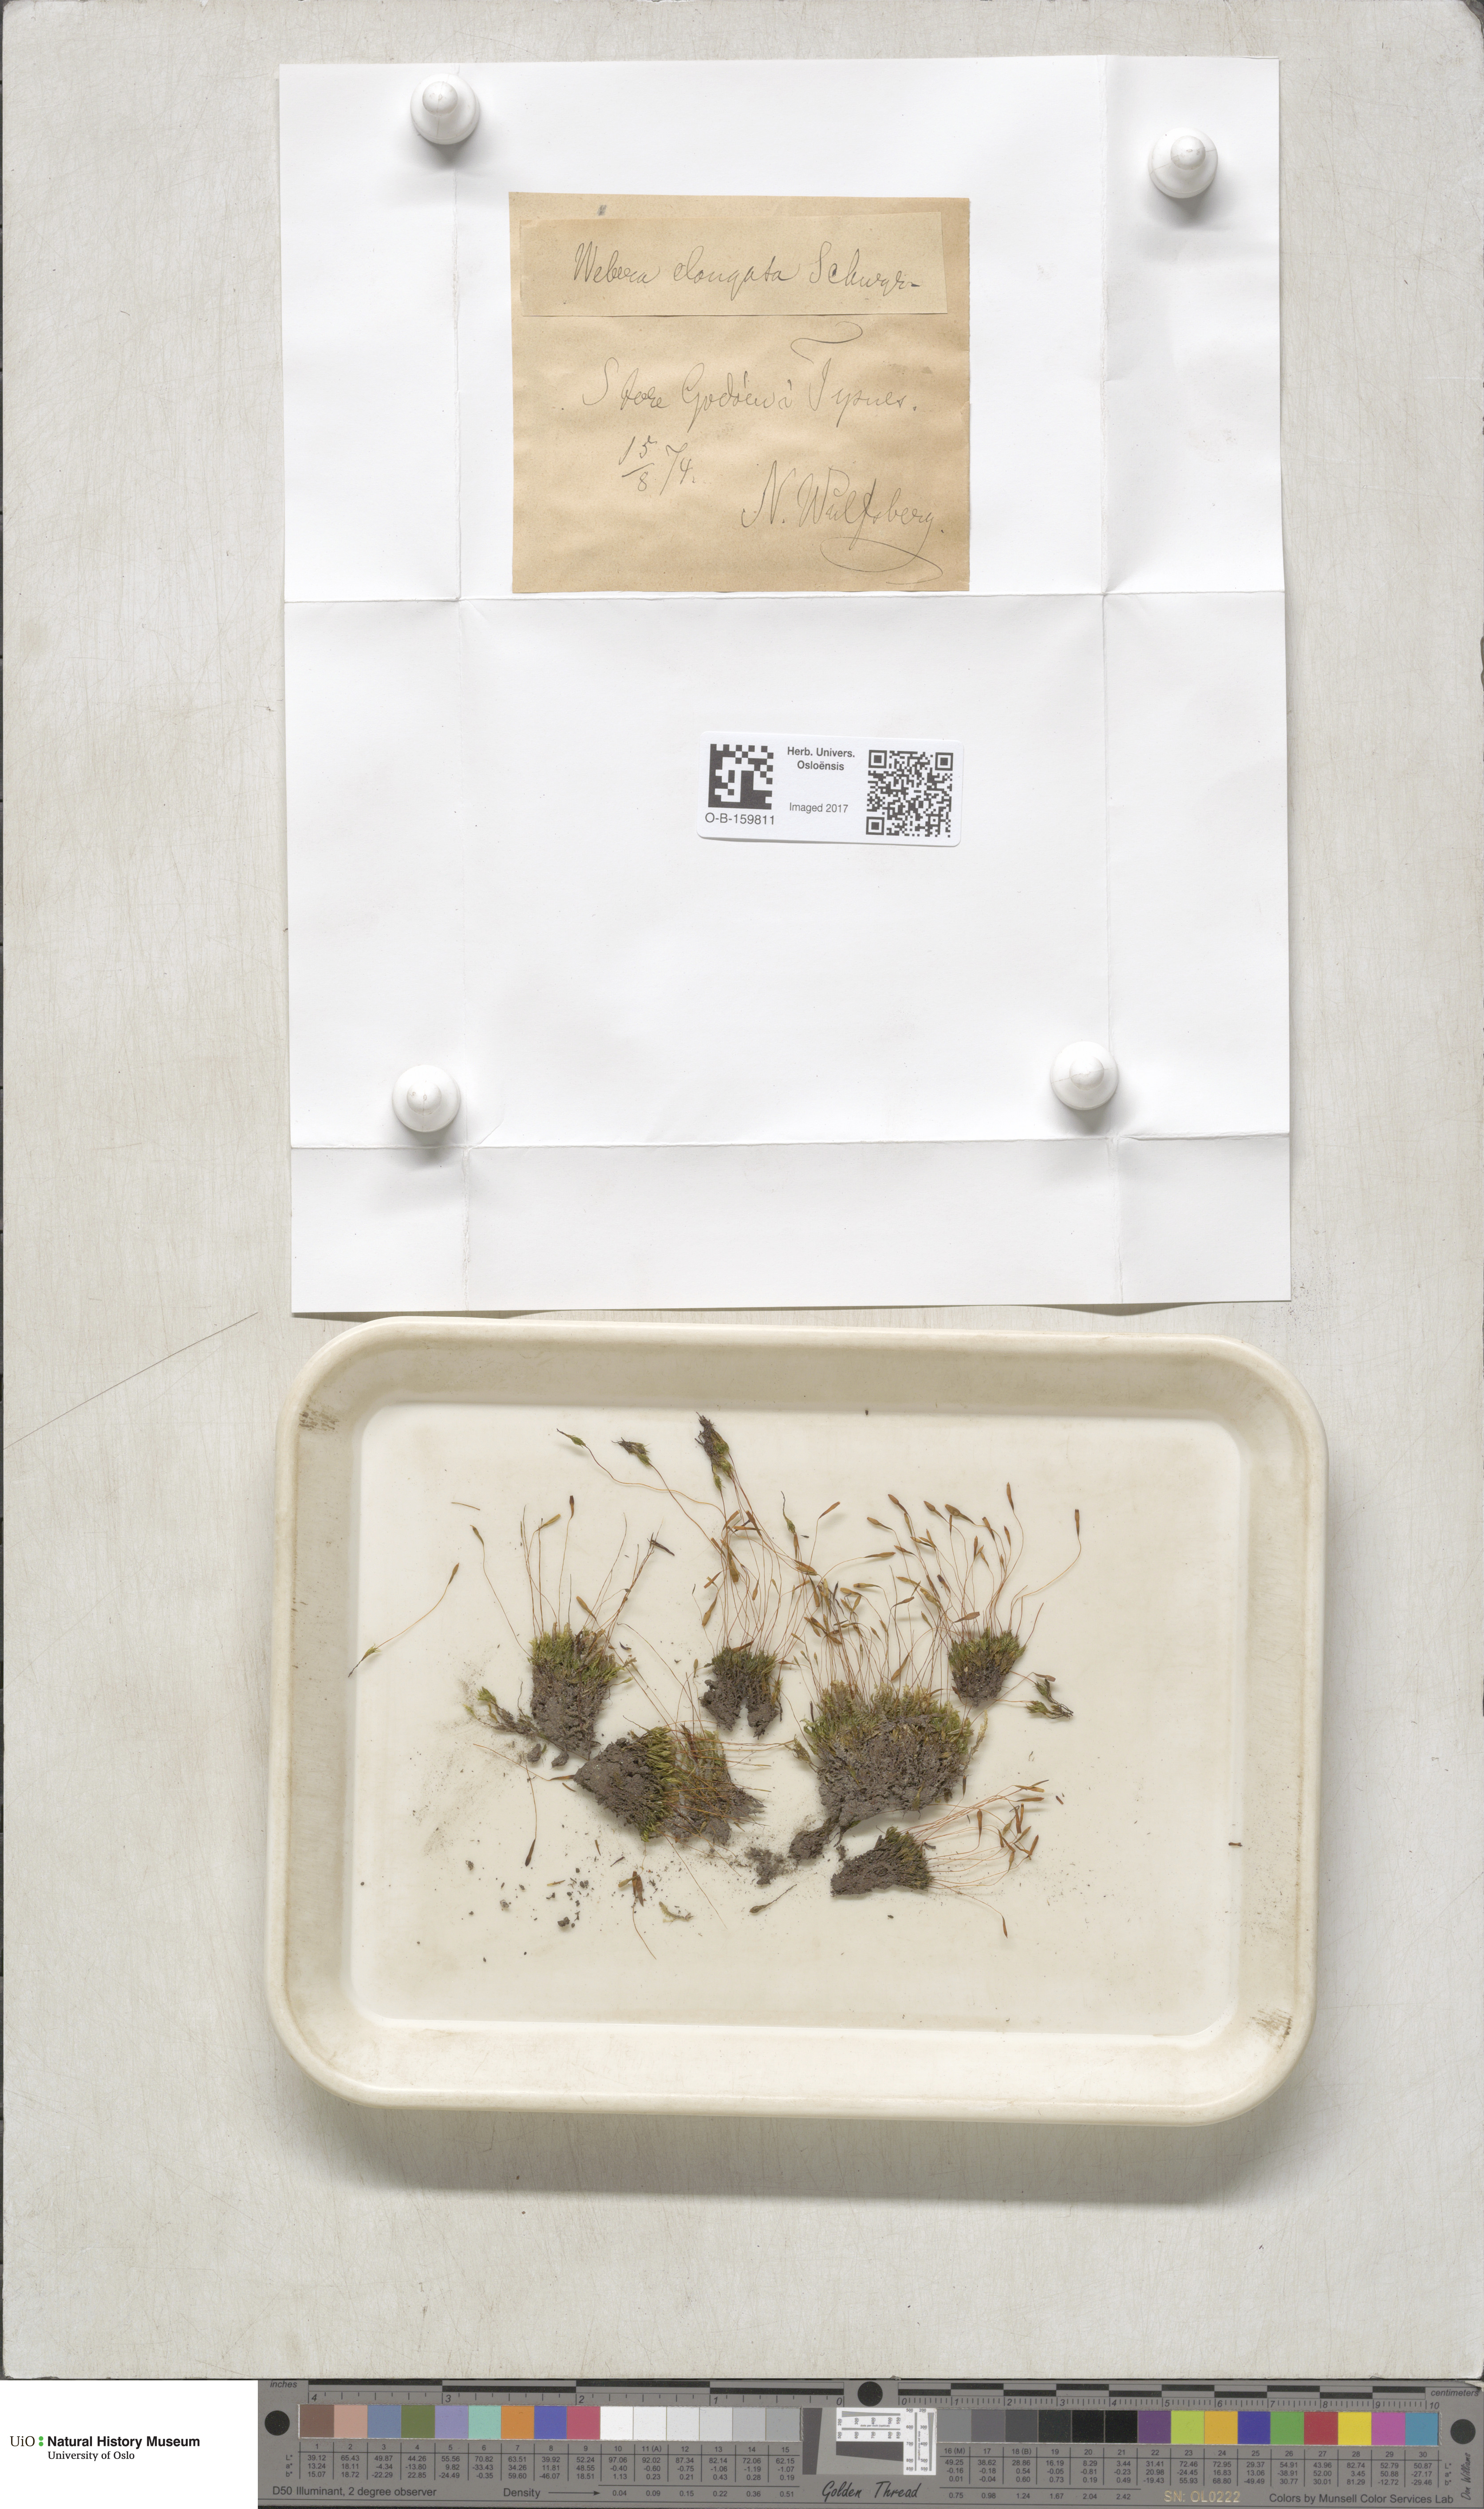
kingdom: Plantae
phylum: Bryophyta
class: Bryopsida
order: Bryales
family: Mniaceae
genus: Pohlia
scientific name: Pohlia elongata
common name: Long-fruited thread-moss
